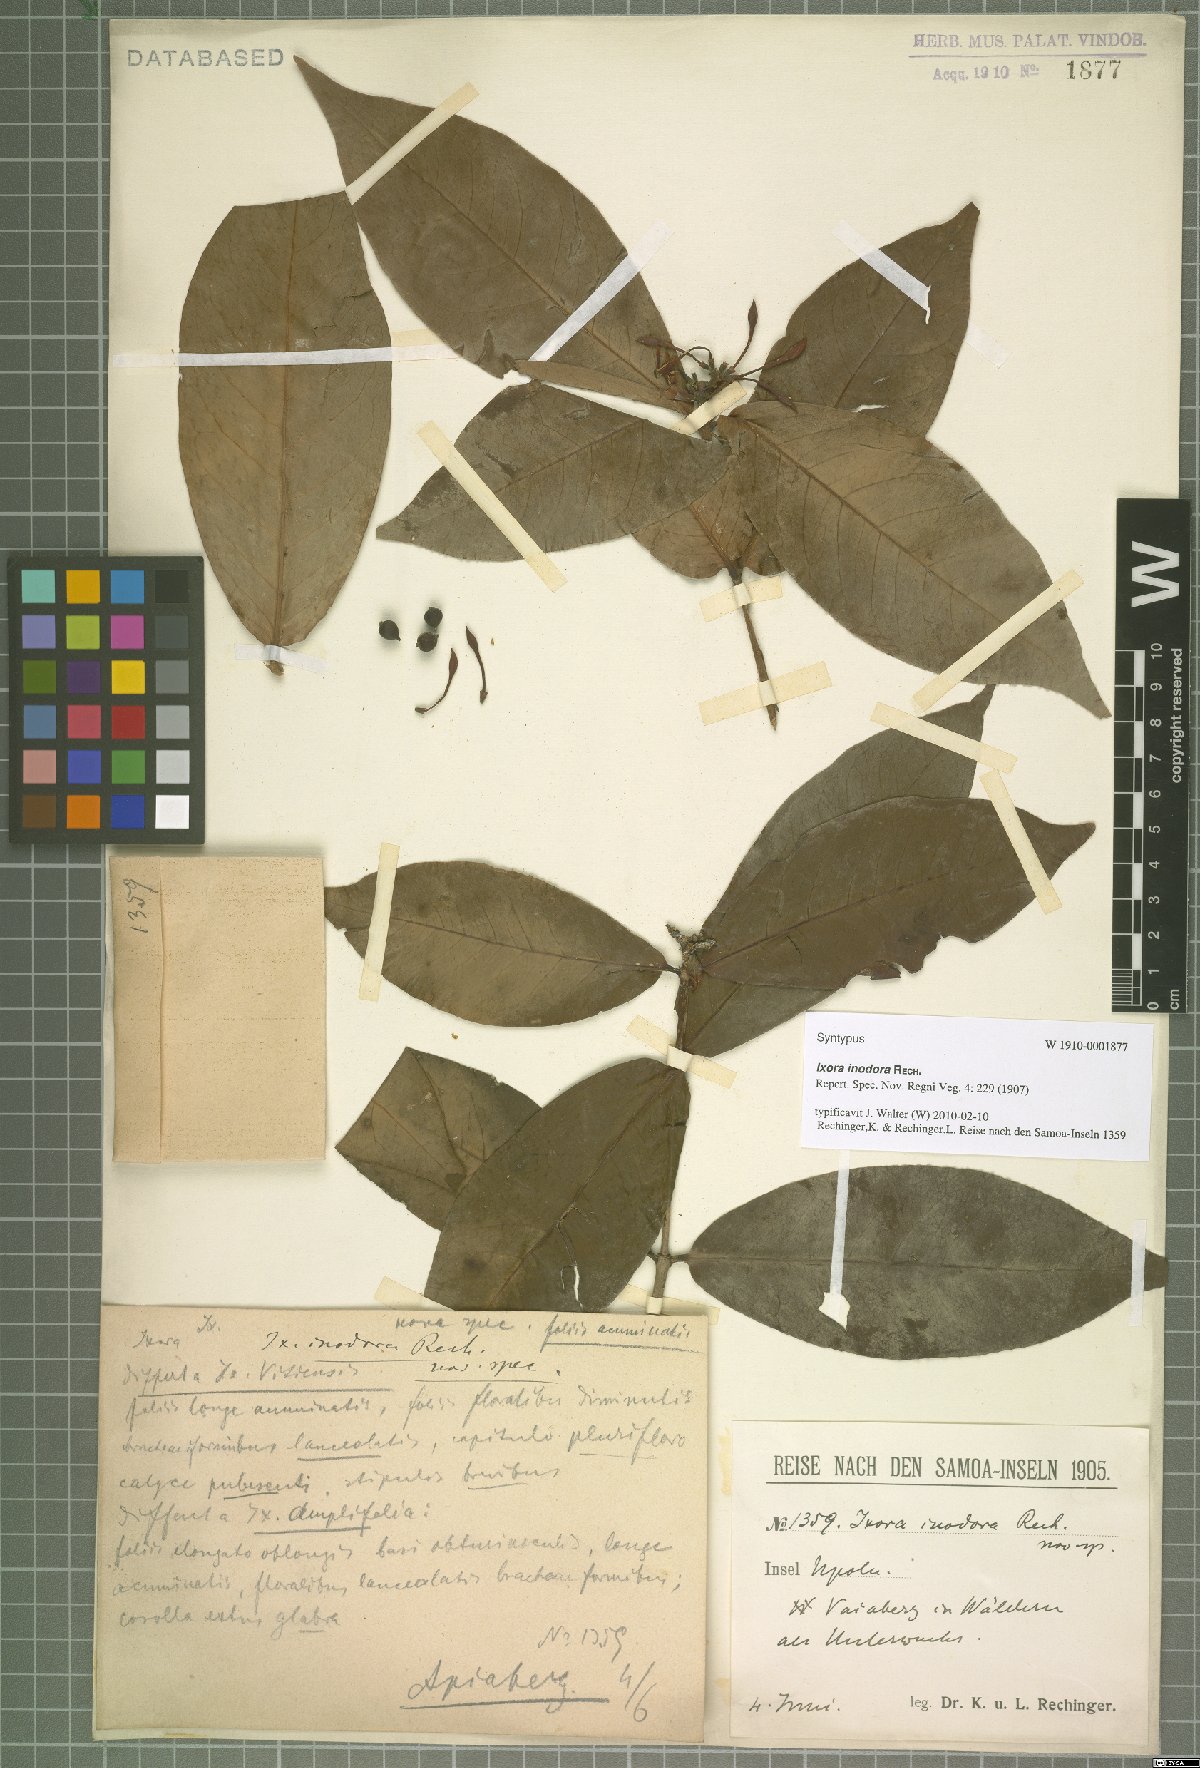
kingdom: Plantae
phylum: Tracheophyta
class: Magnoliopsida
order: Gentianales
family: Rubiaceae
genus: Ixora
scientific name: Ixora inodora
